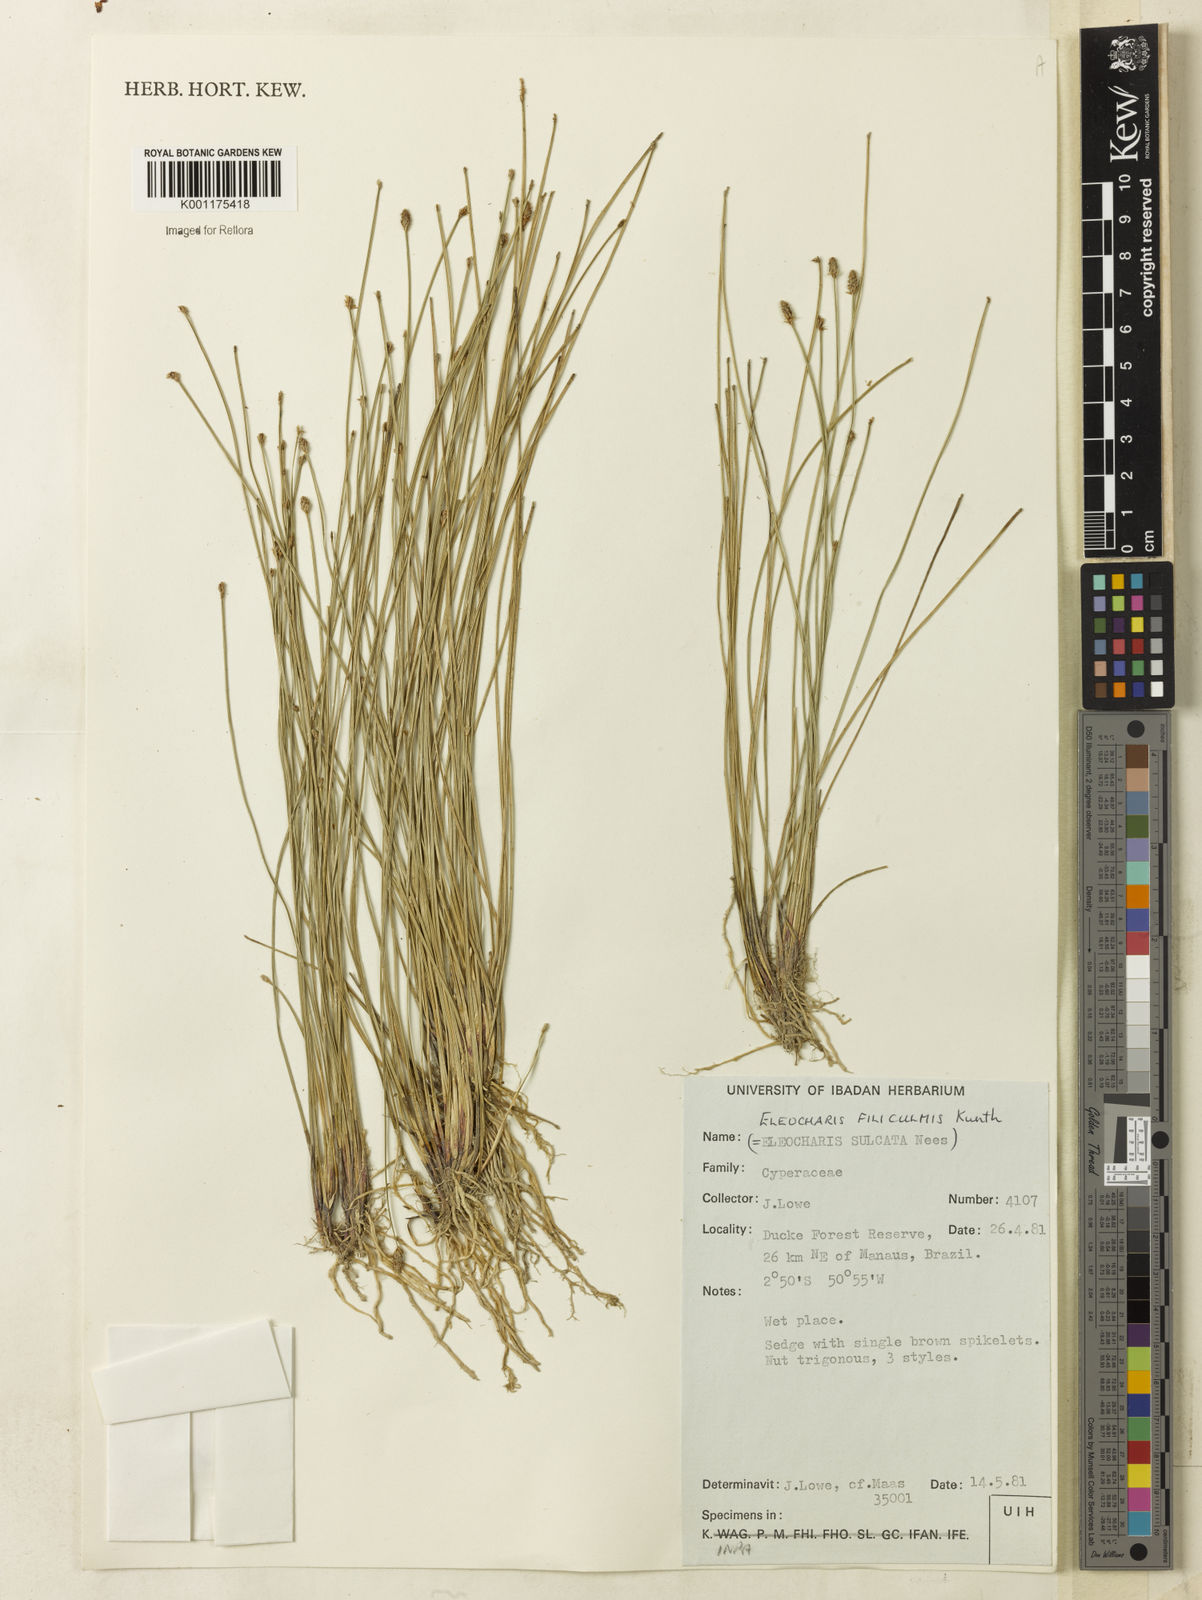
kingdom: Plantae
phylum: Tracheophyta
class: Liliopsida
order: Poales
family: Cyperaceae
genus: Eleocharis
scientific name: Eleocharis filiculmis
